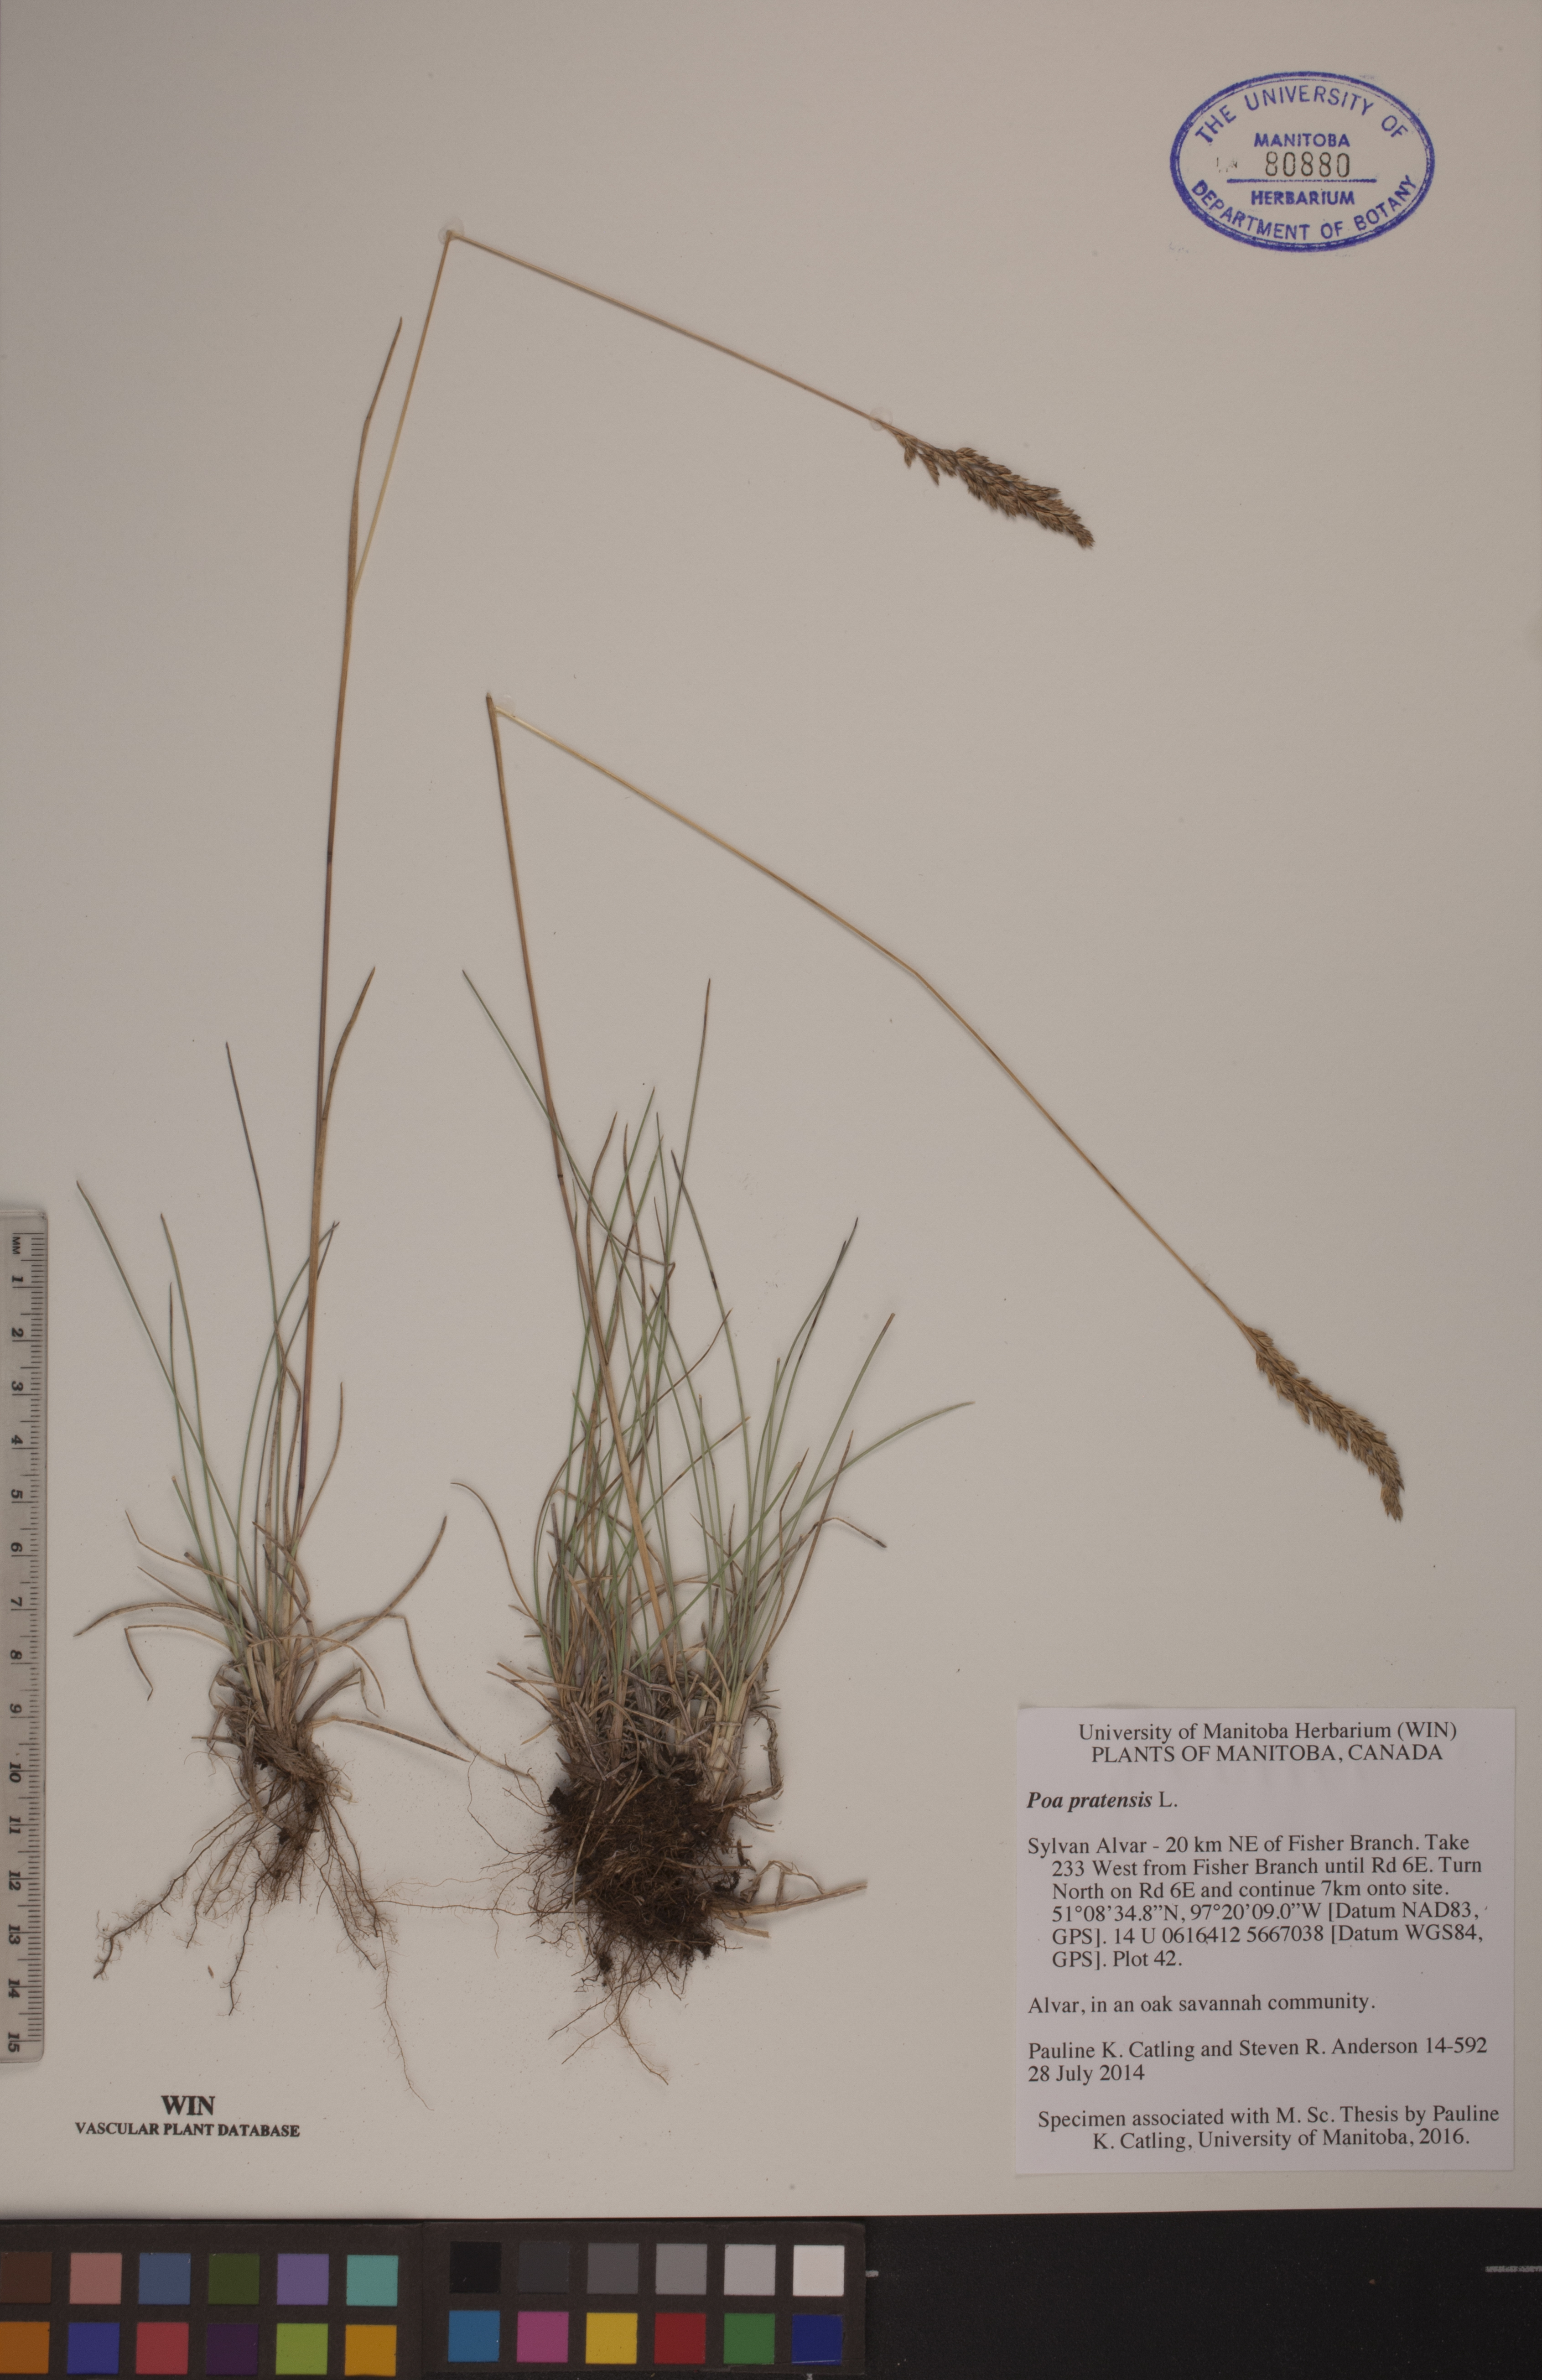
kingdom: Plantae
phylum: Tracheophyta
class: Liliopsida
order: Poales
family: Poaceae
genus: Poa
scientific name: Poa pratensis
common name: Kentucky bluegrass
